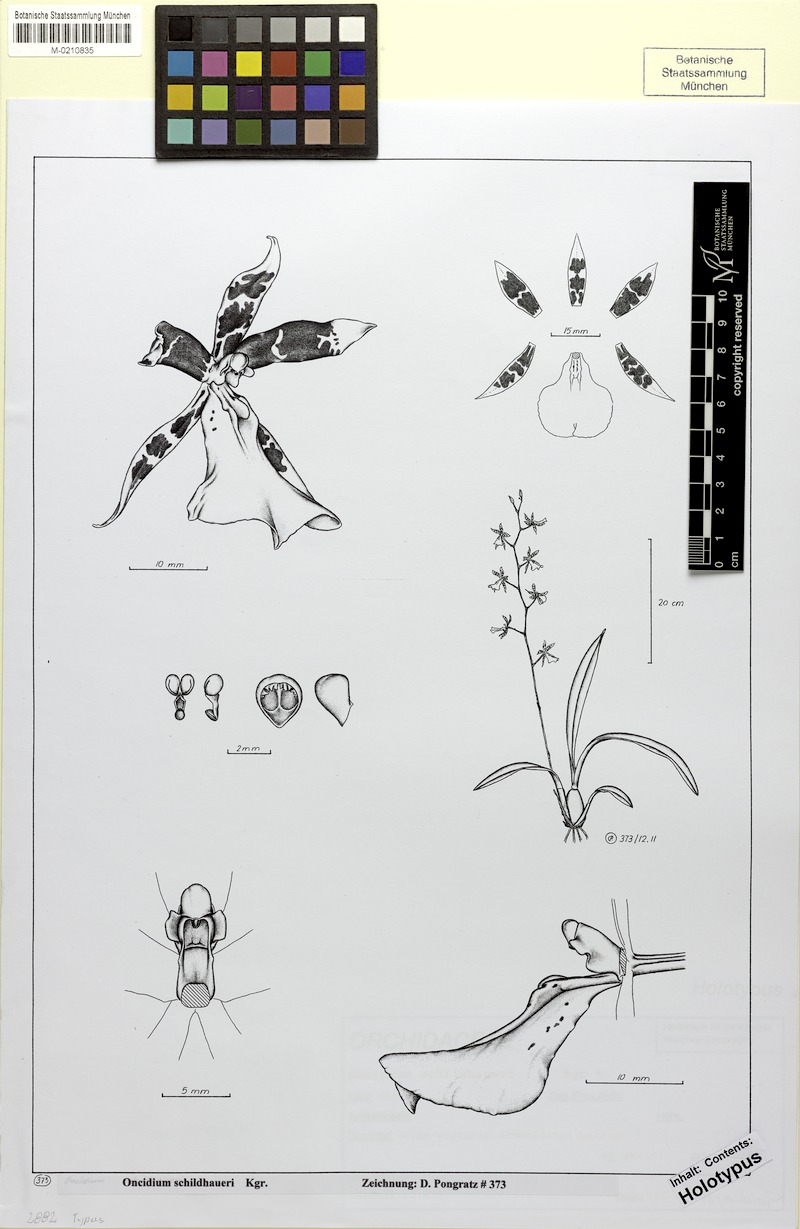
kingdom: Plantae
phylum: Tracheophyta
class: Liliopsida
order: Asparagales
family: Orchidaceae
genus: Oncidium
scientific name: Oncidium schildhaueri
